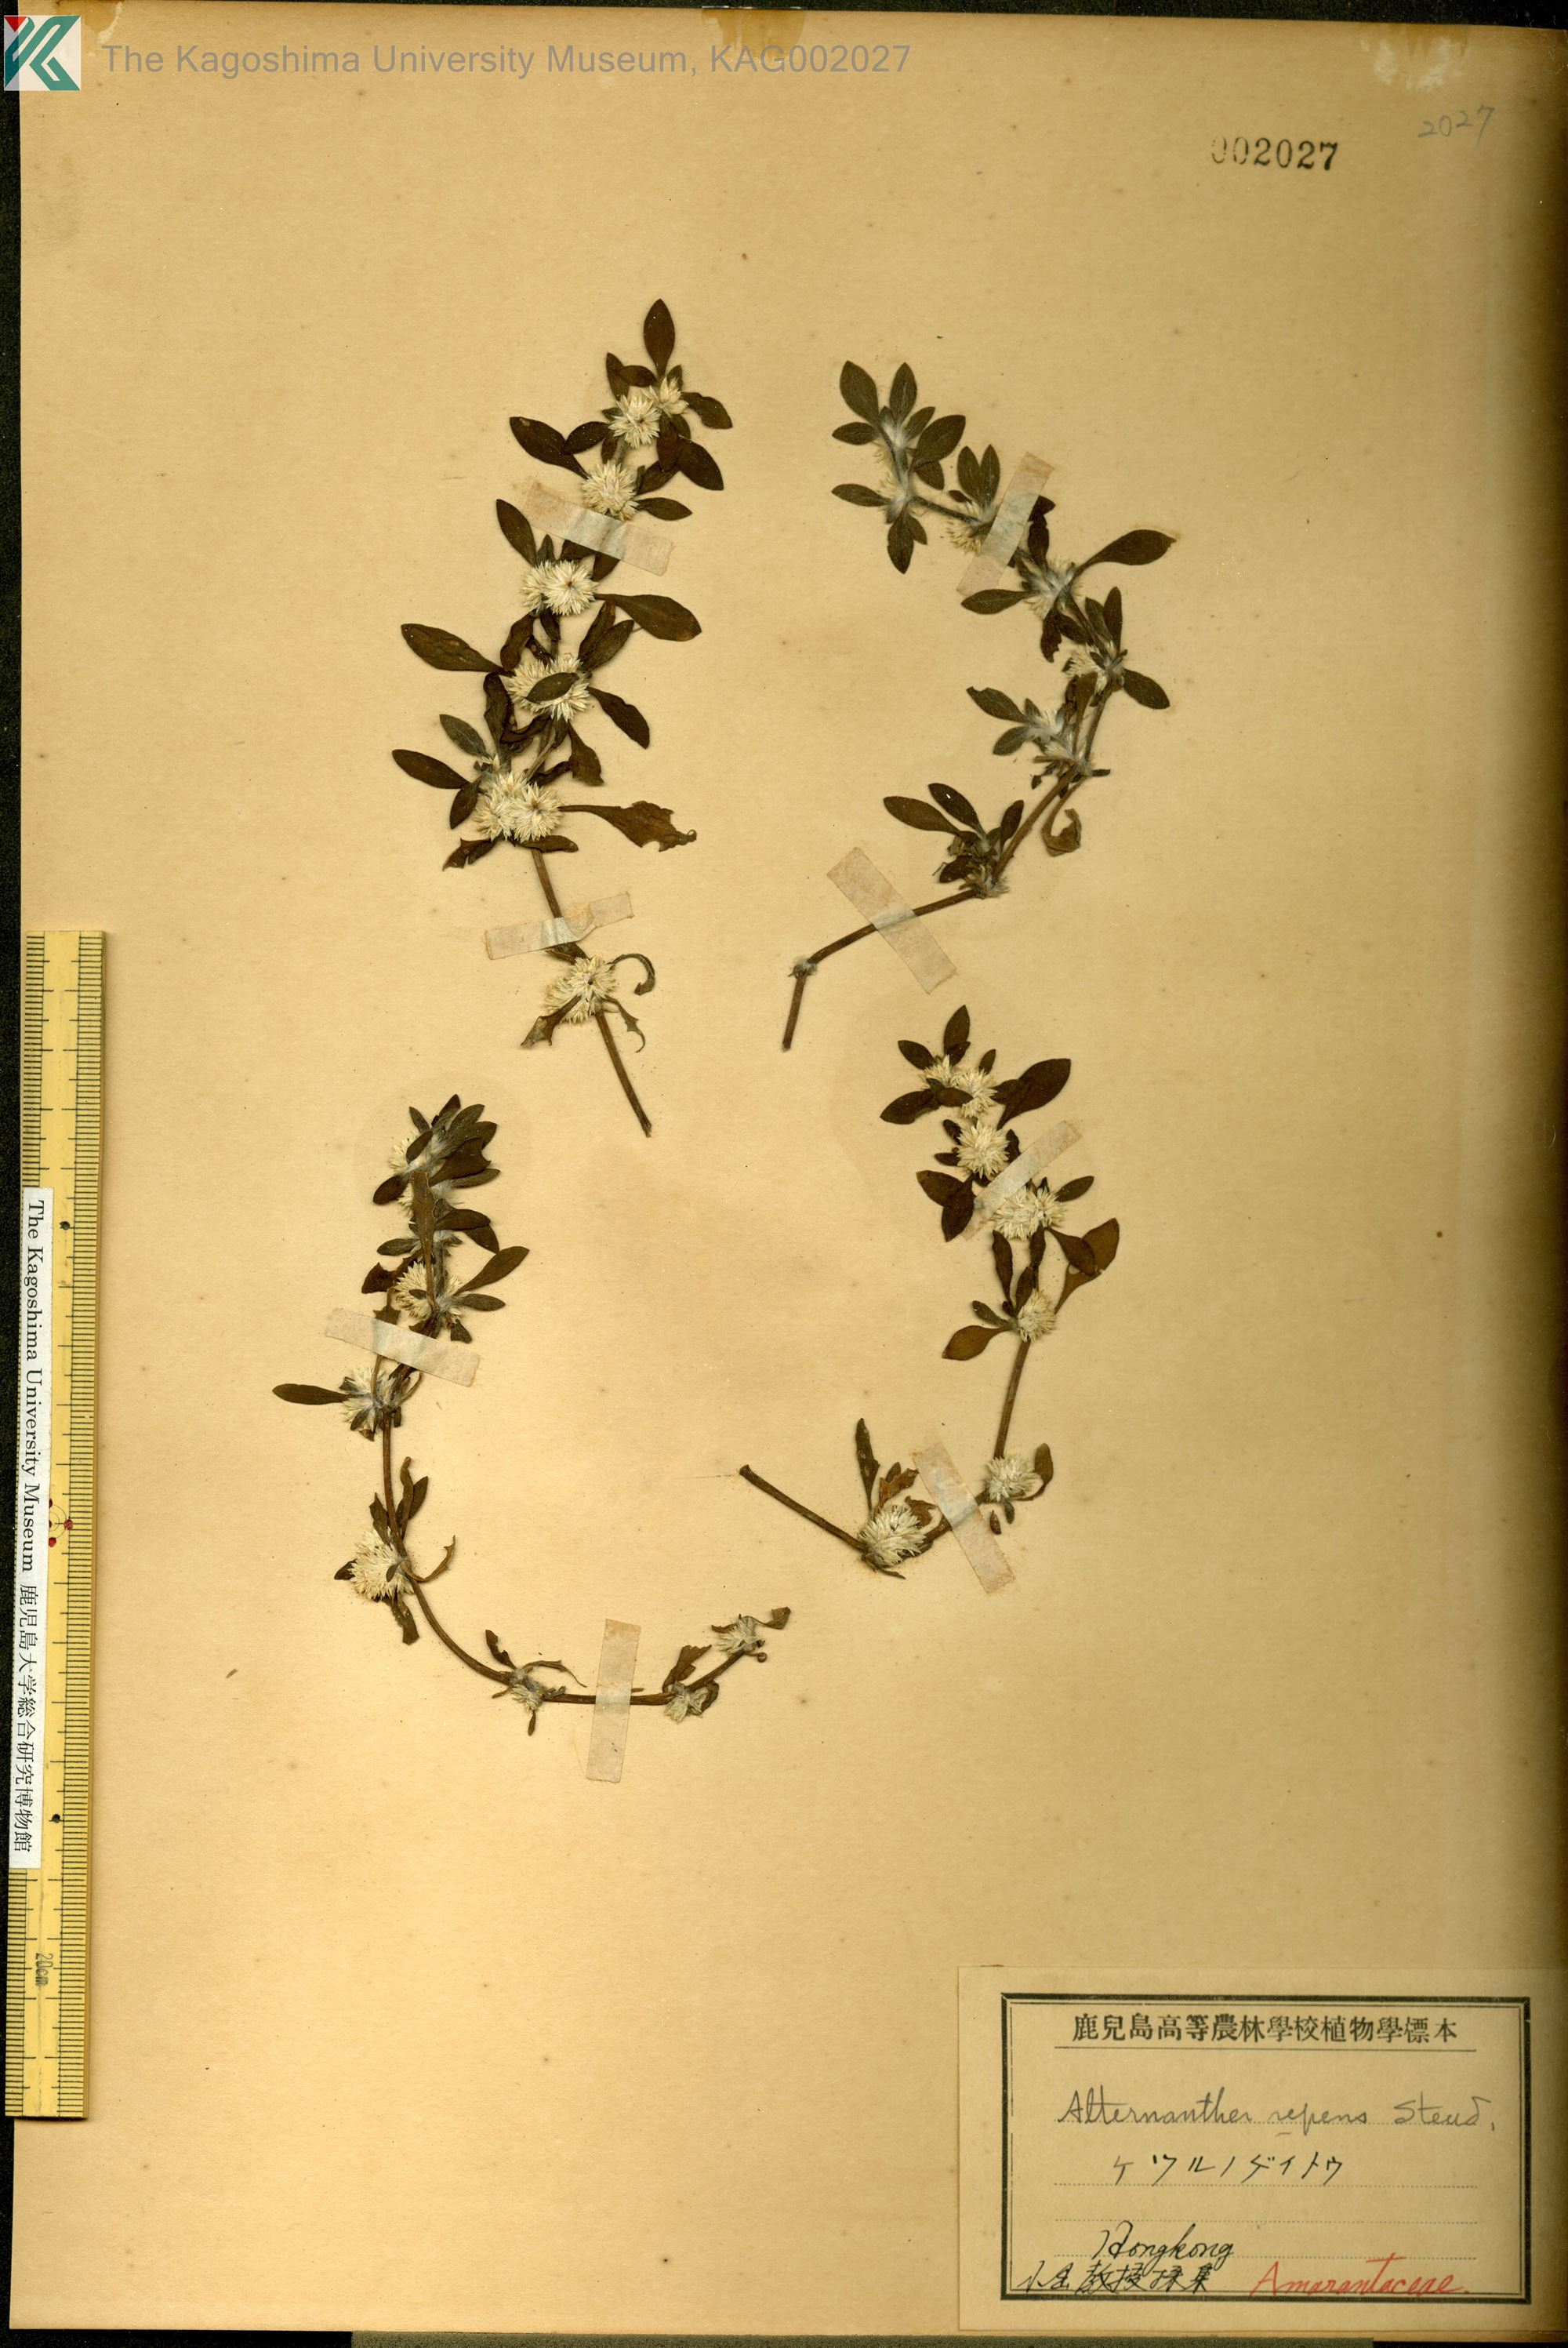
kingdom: Plantae
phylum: Tracheophyta
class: Magnoliopsida
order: Caryophyllales
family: Amaranthaceae
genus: Alternanthera
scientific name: Alternanthera pungens
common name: Khakiweed
